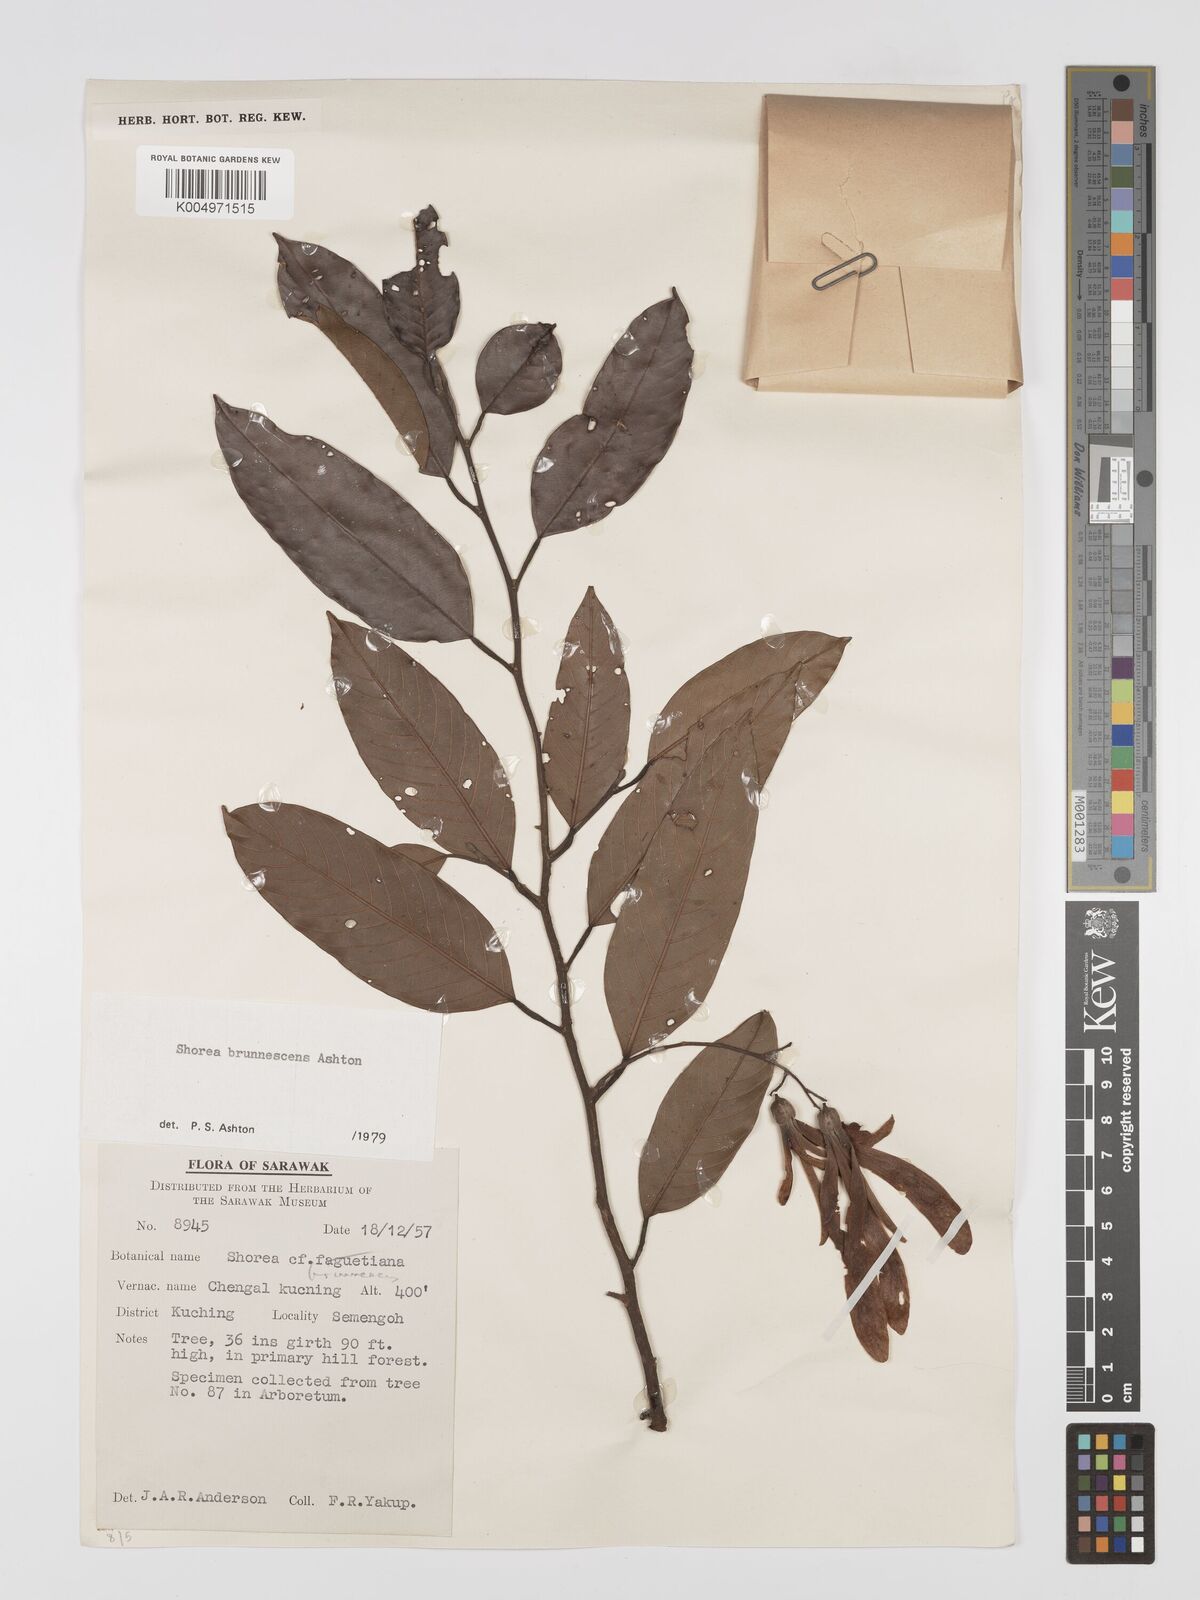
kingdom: Plantae
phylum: Tracheophyta
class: Magnoliopsida
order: Malvales
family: Dipterocarpaceae
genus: Shorea
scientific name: Shorea brunnescens
